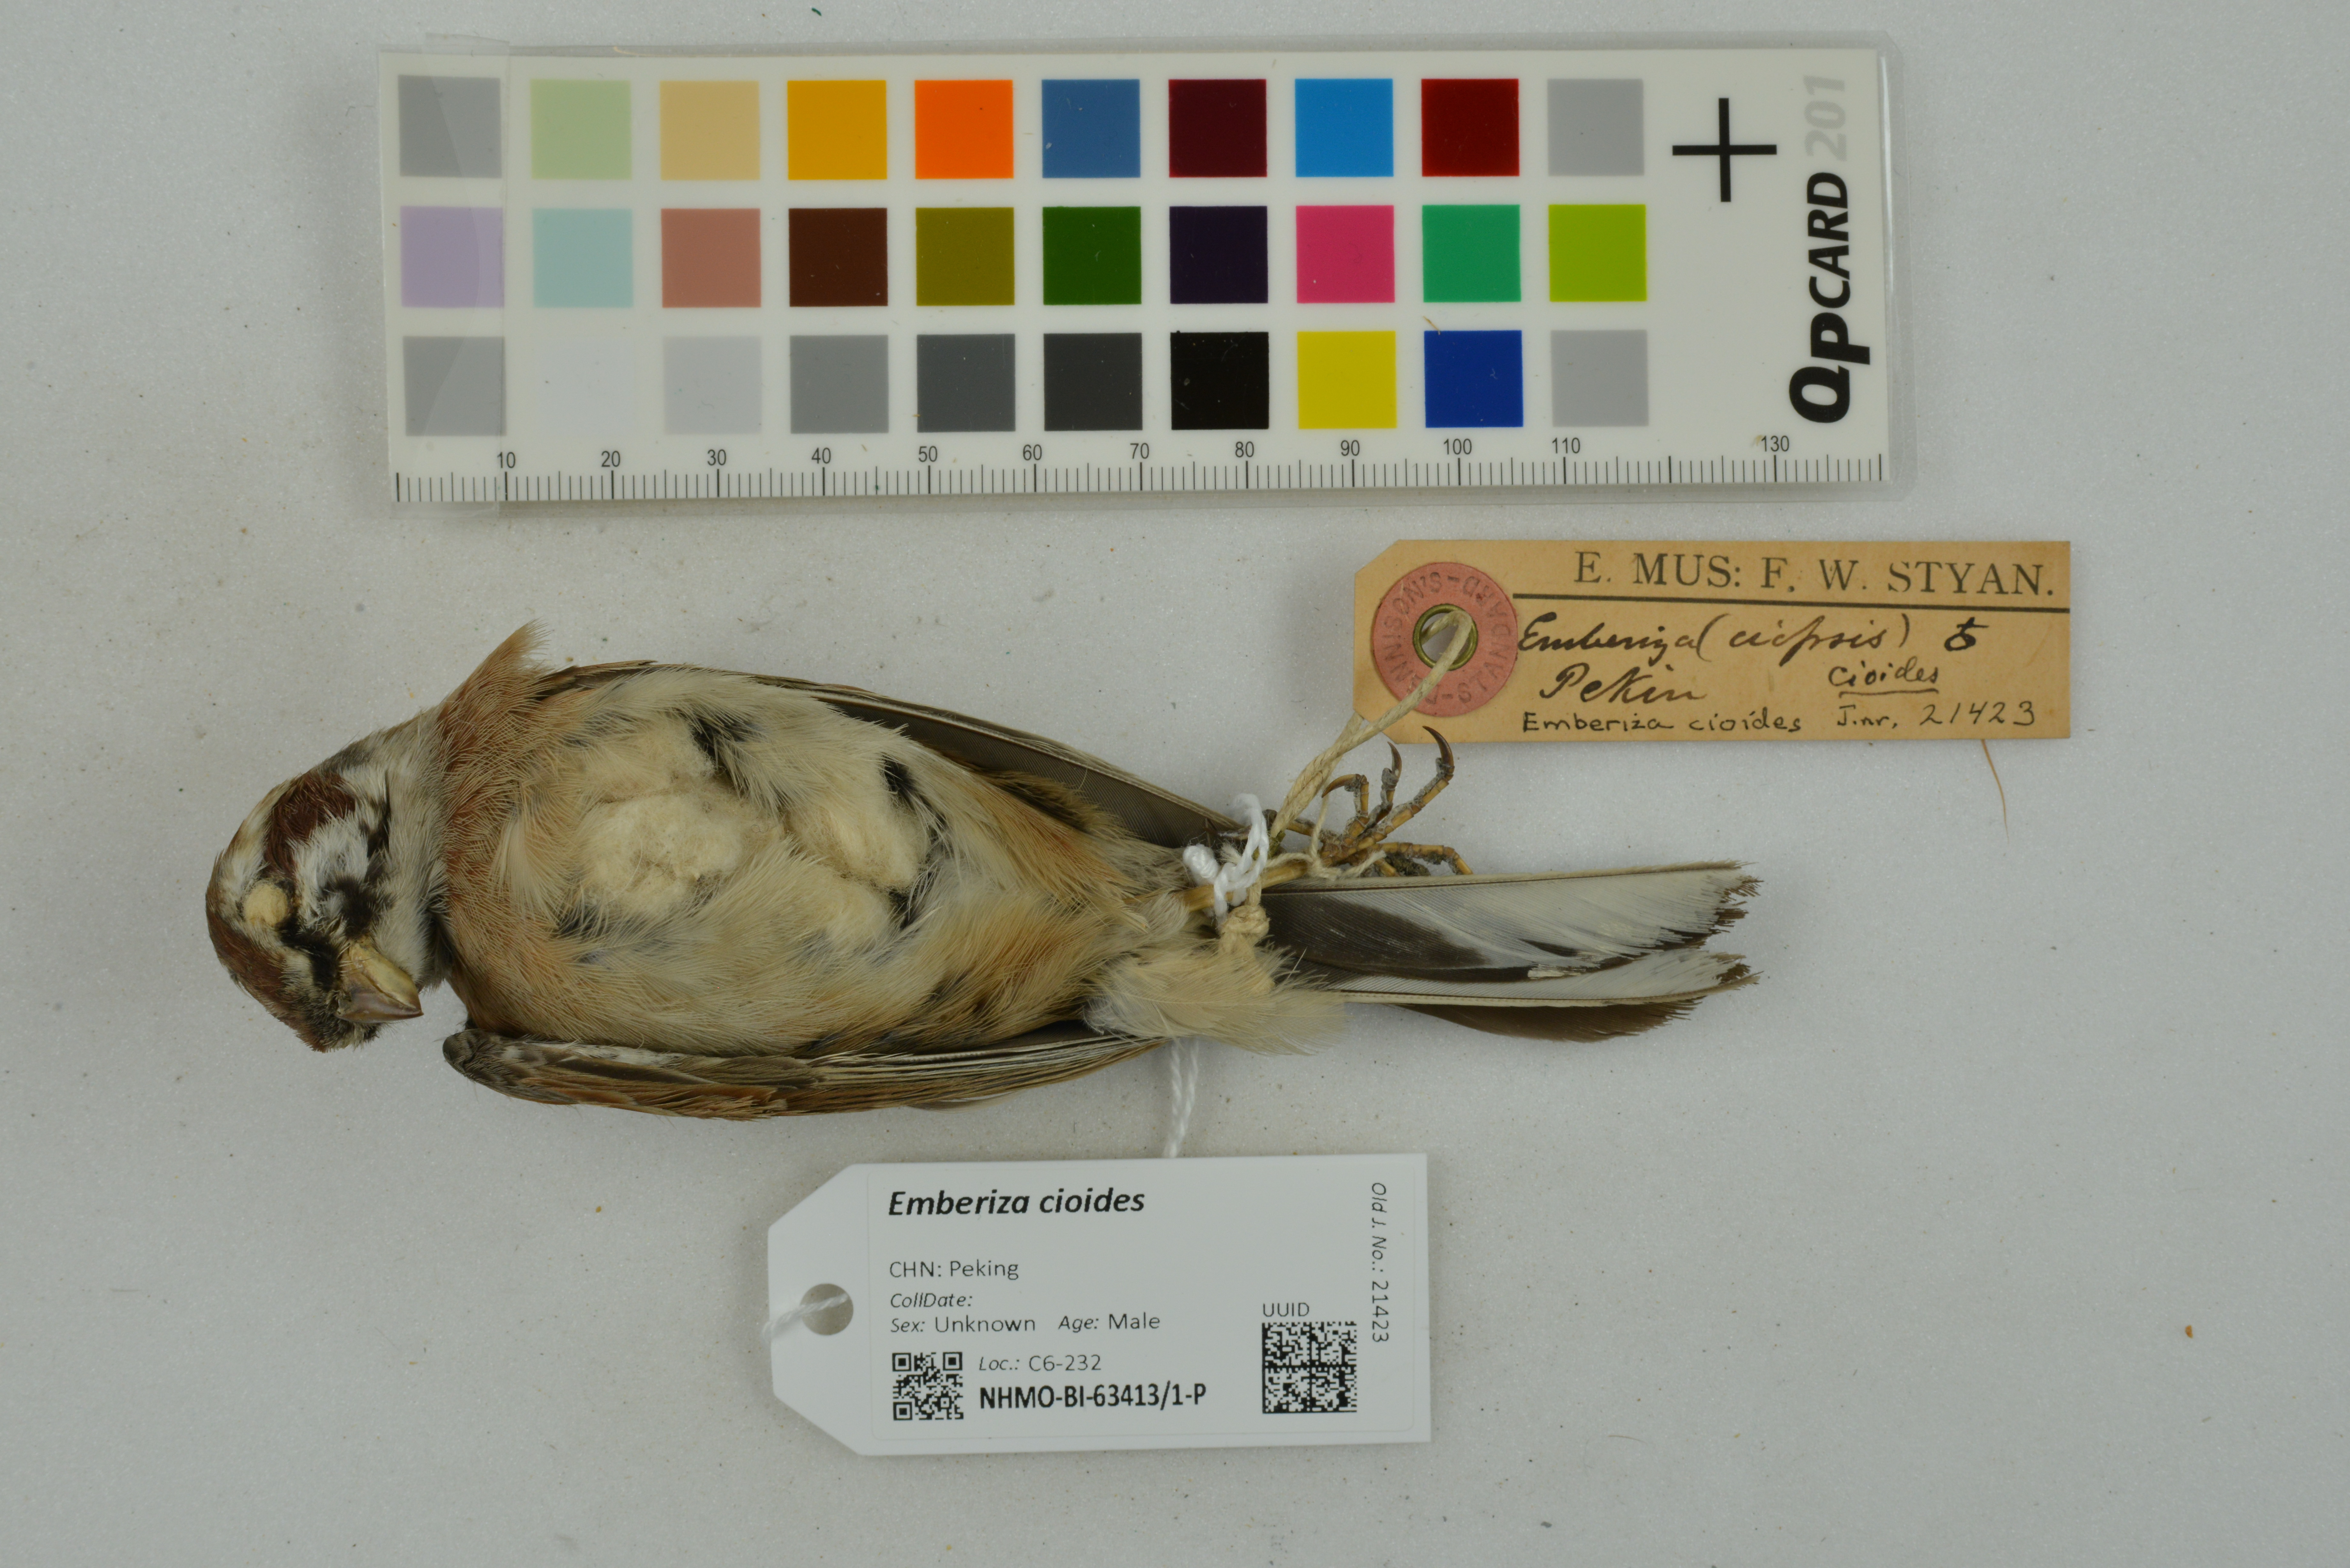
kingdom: Animalia
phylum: Chordata
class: Aves
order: Passeriformes
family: Emberizidae
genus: Emberiza
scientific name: Emberiza cioides
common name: Meadow bunting
